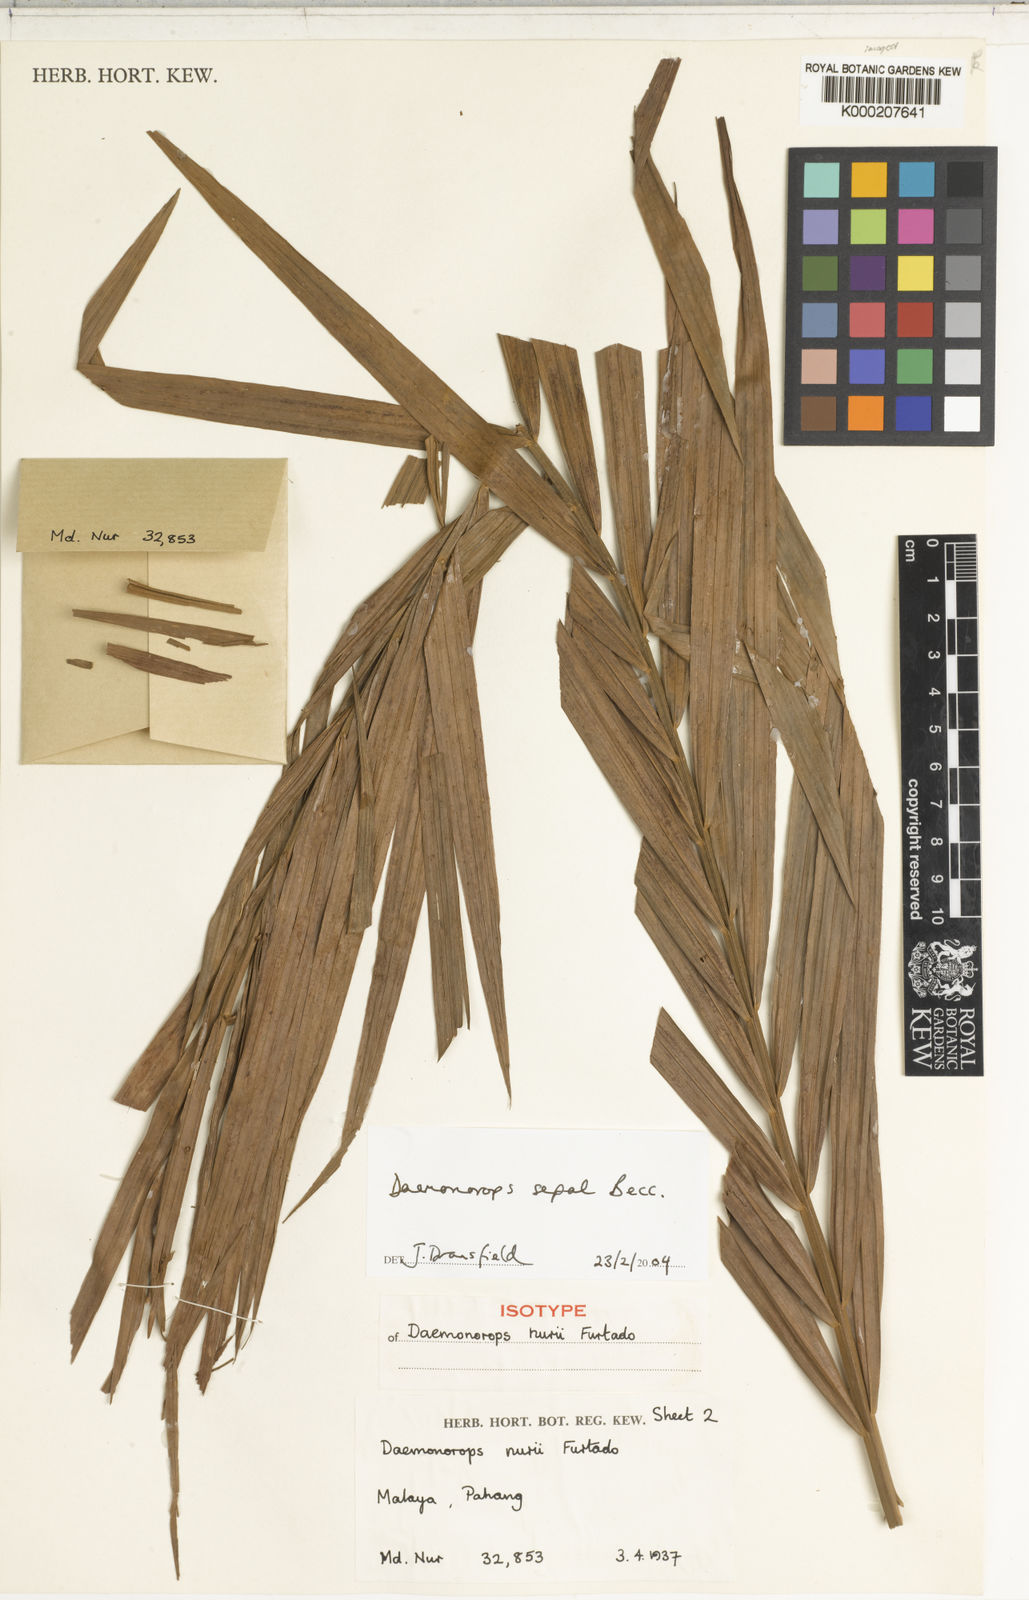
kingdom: Plantae
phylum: Tracheophyta
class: Liliopsida
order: Arecales
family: Arecaceae
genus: Calamus
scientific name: Calamus melanochaetes
